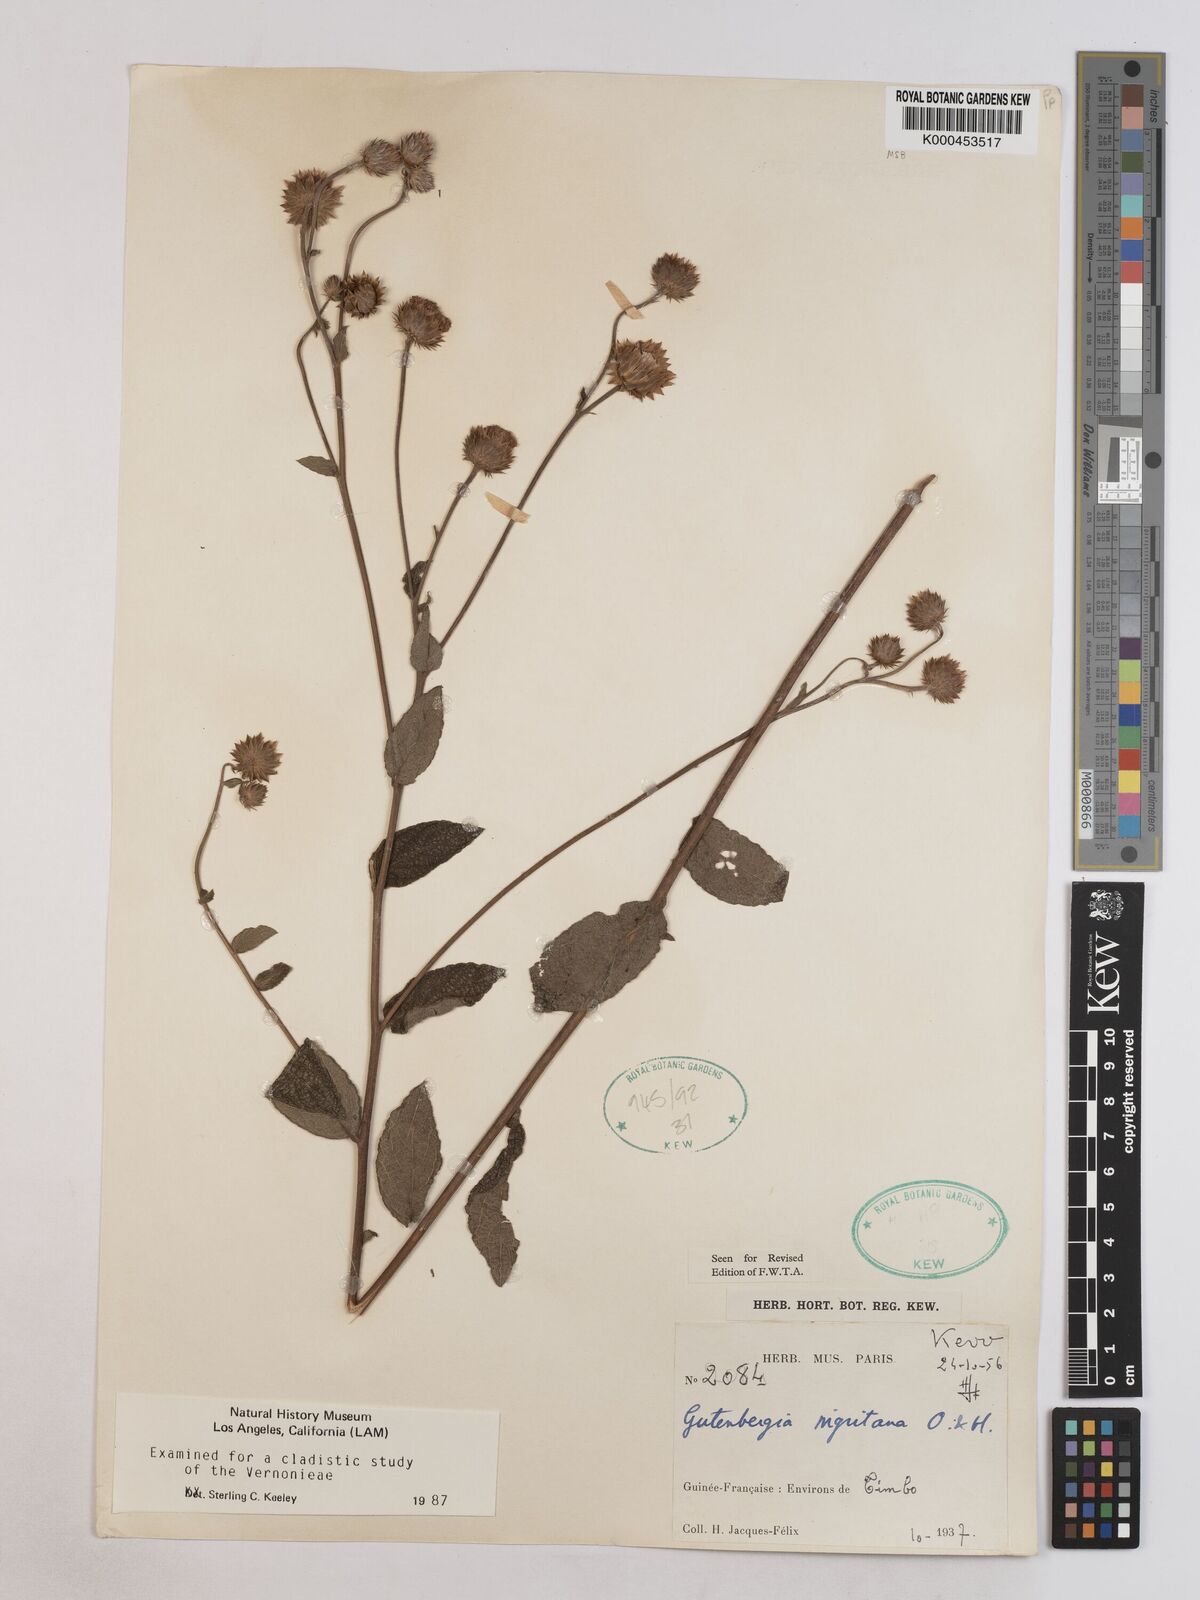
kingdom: Plantae
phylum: Tracheophyta
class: Magnoliopsida
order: Asterales
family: Asteraceae
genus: Kinghamia
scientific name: Kinghamia nigritana
